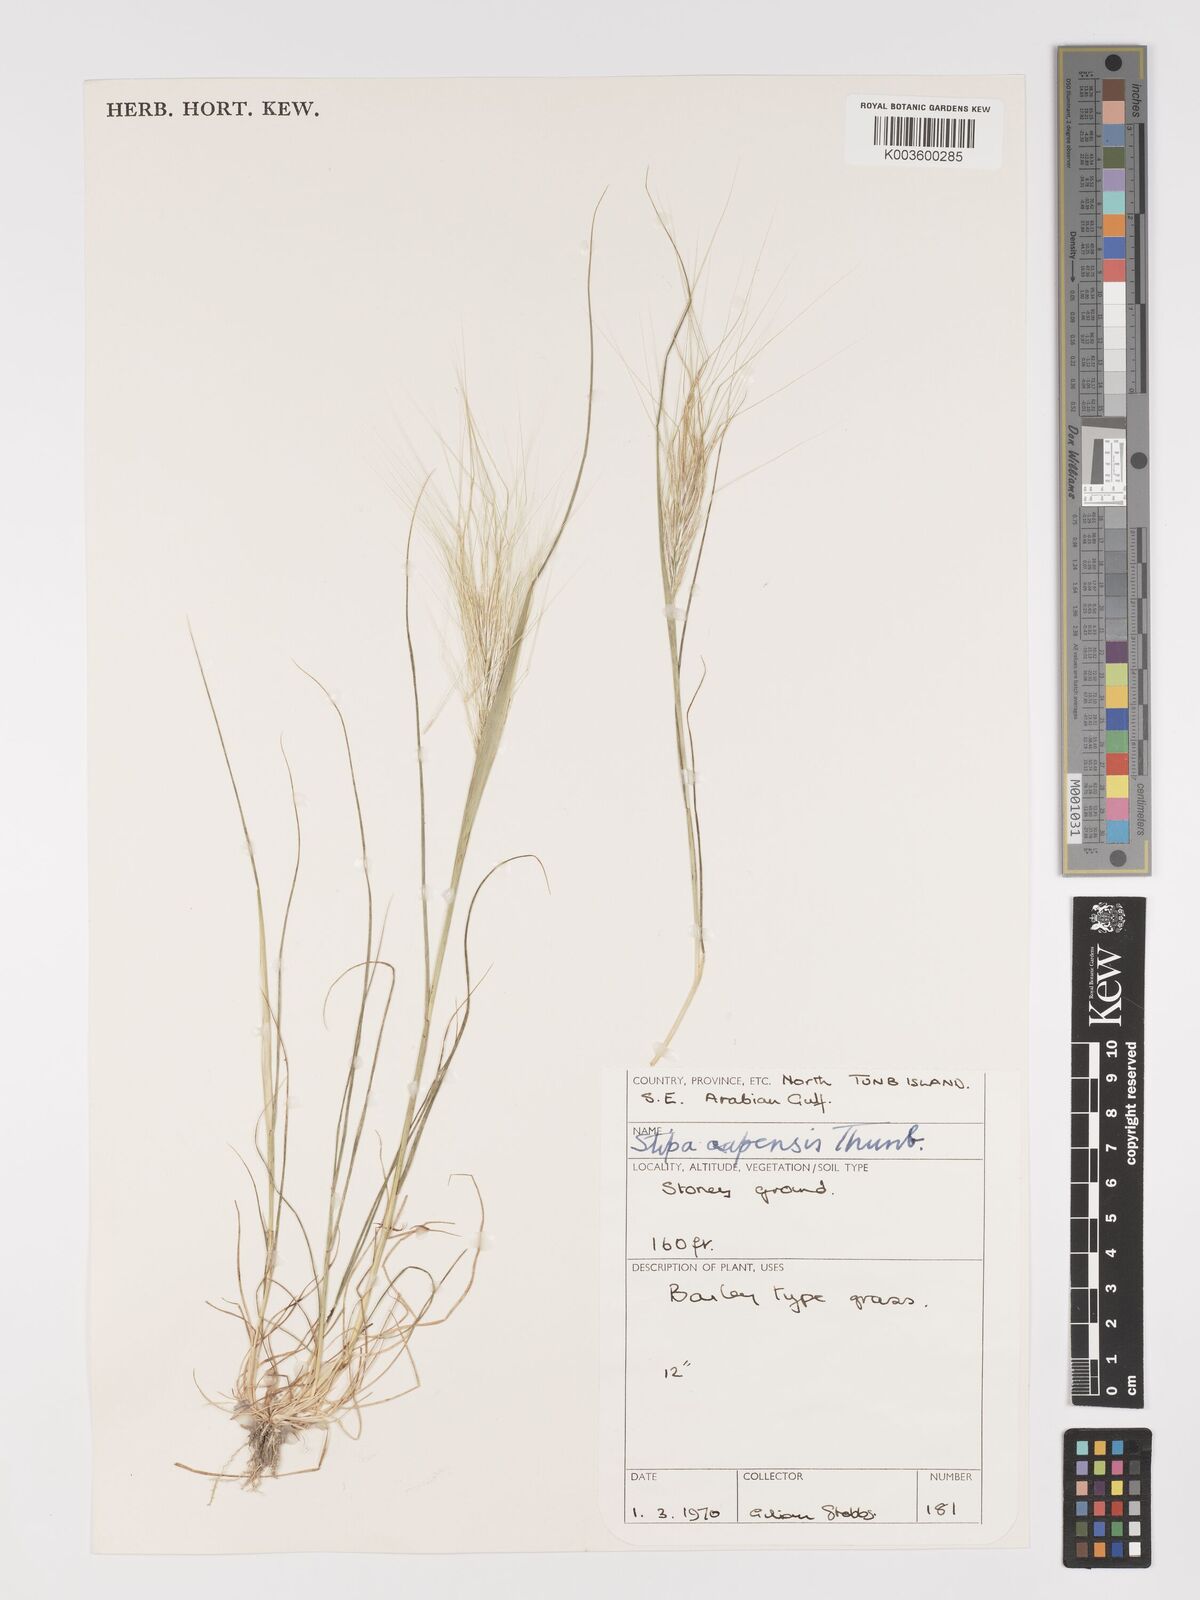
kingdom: Plantae
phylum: Tracheophyta
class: Liliopsida
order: Poales
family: Poaceae
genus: Stipellula
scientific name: Stipellula capensis
